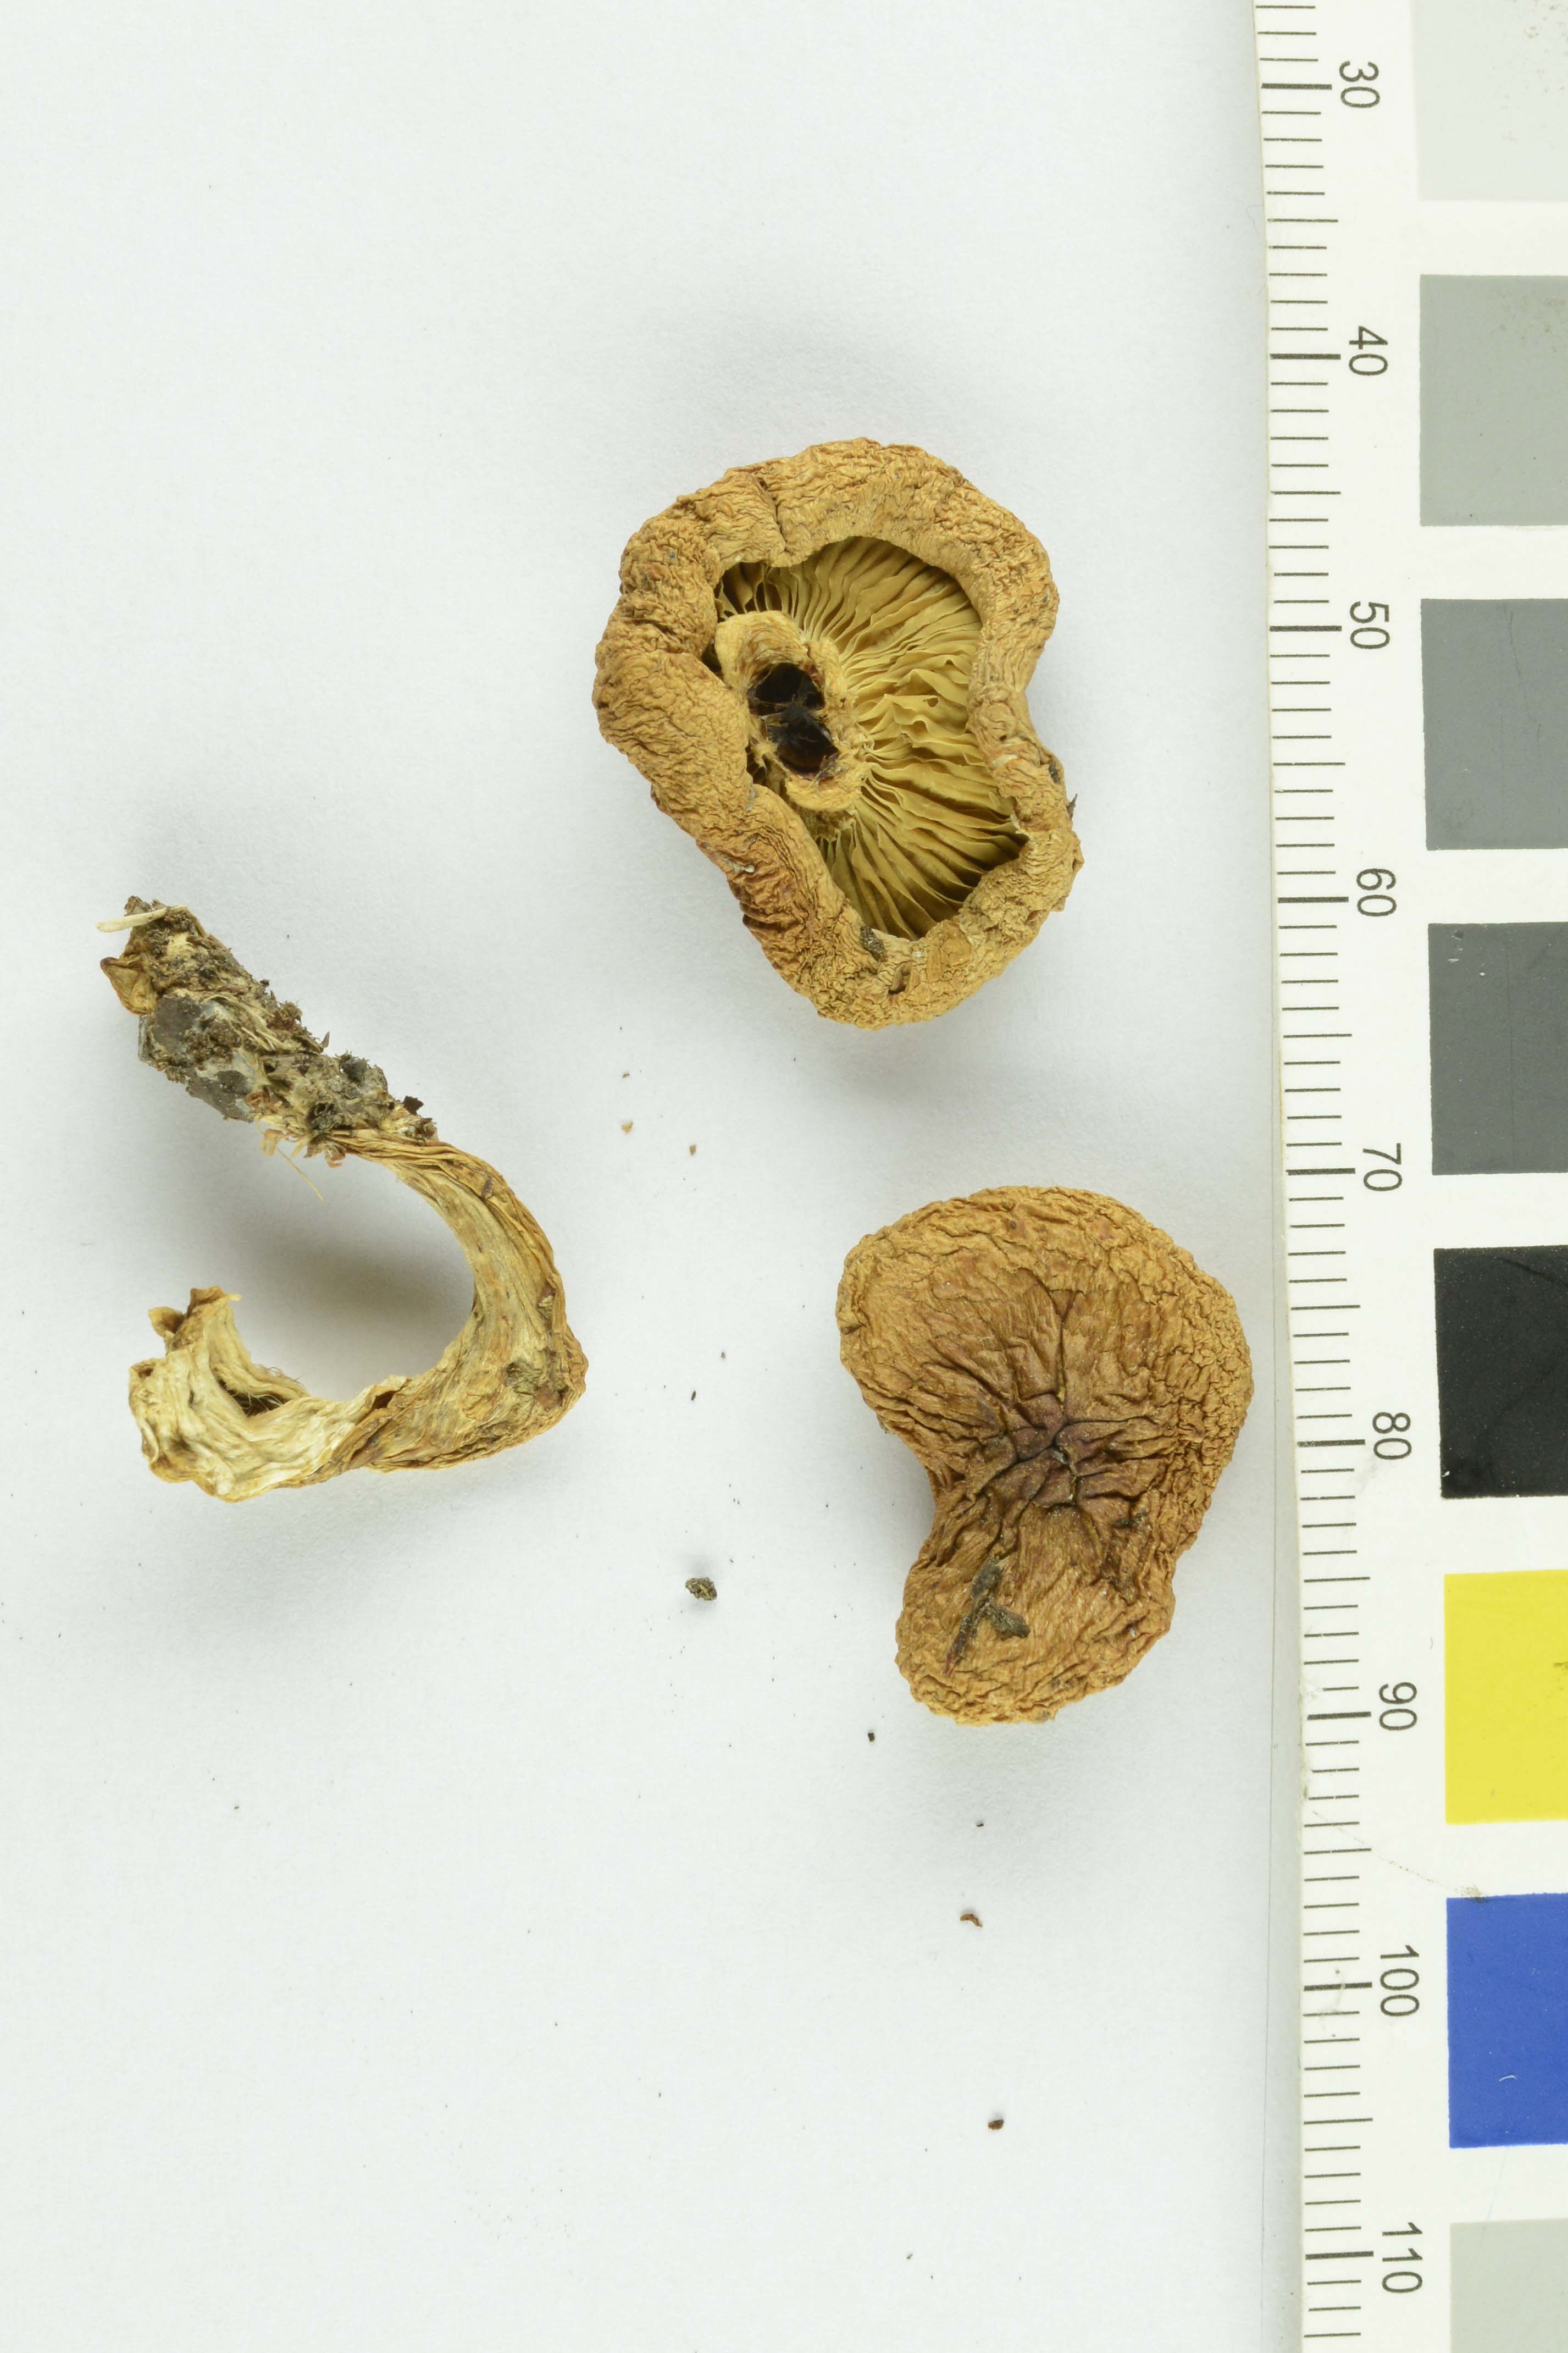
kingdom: Fungi
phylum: Basidiomycota
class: Agaricomycetes
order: Agaricales
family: Strophariaceae
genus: Pholiota
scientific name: Pholiota mixta
